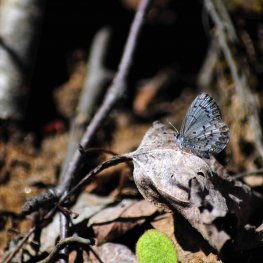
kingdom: Animalia
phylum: Arthropoda
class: Insecta
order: Lepidoptera
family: Lycaenidae
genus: Celastrina
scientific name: Celastrina lucia
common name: Northern Spring Azure
